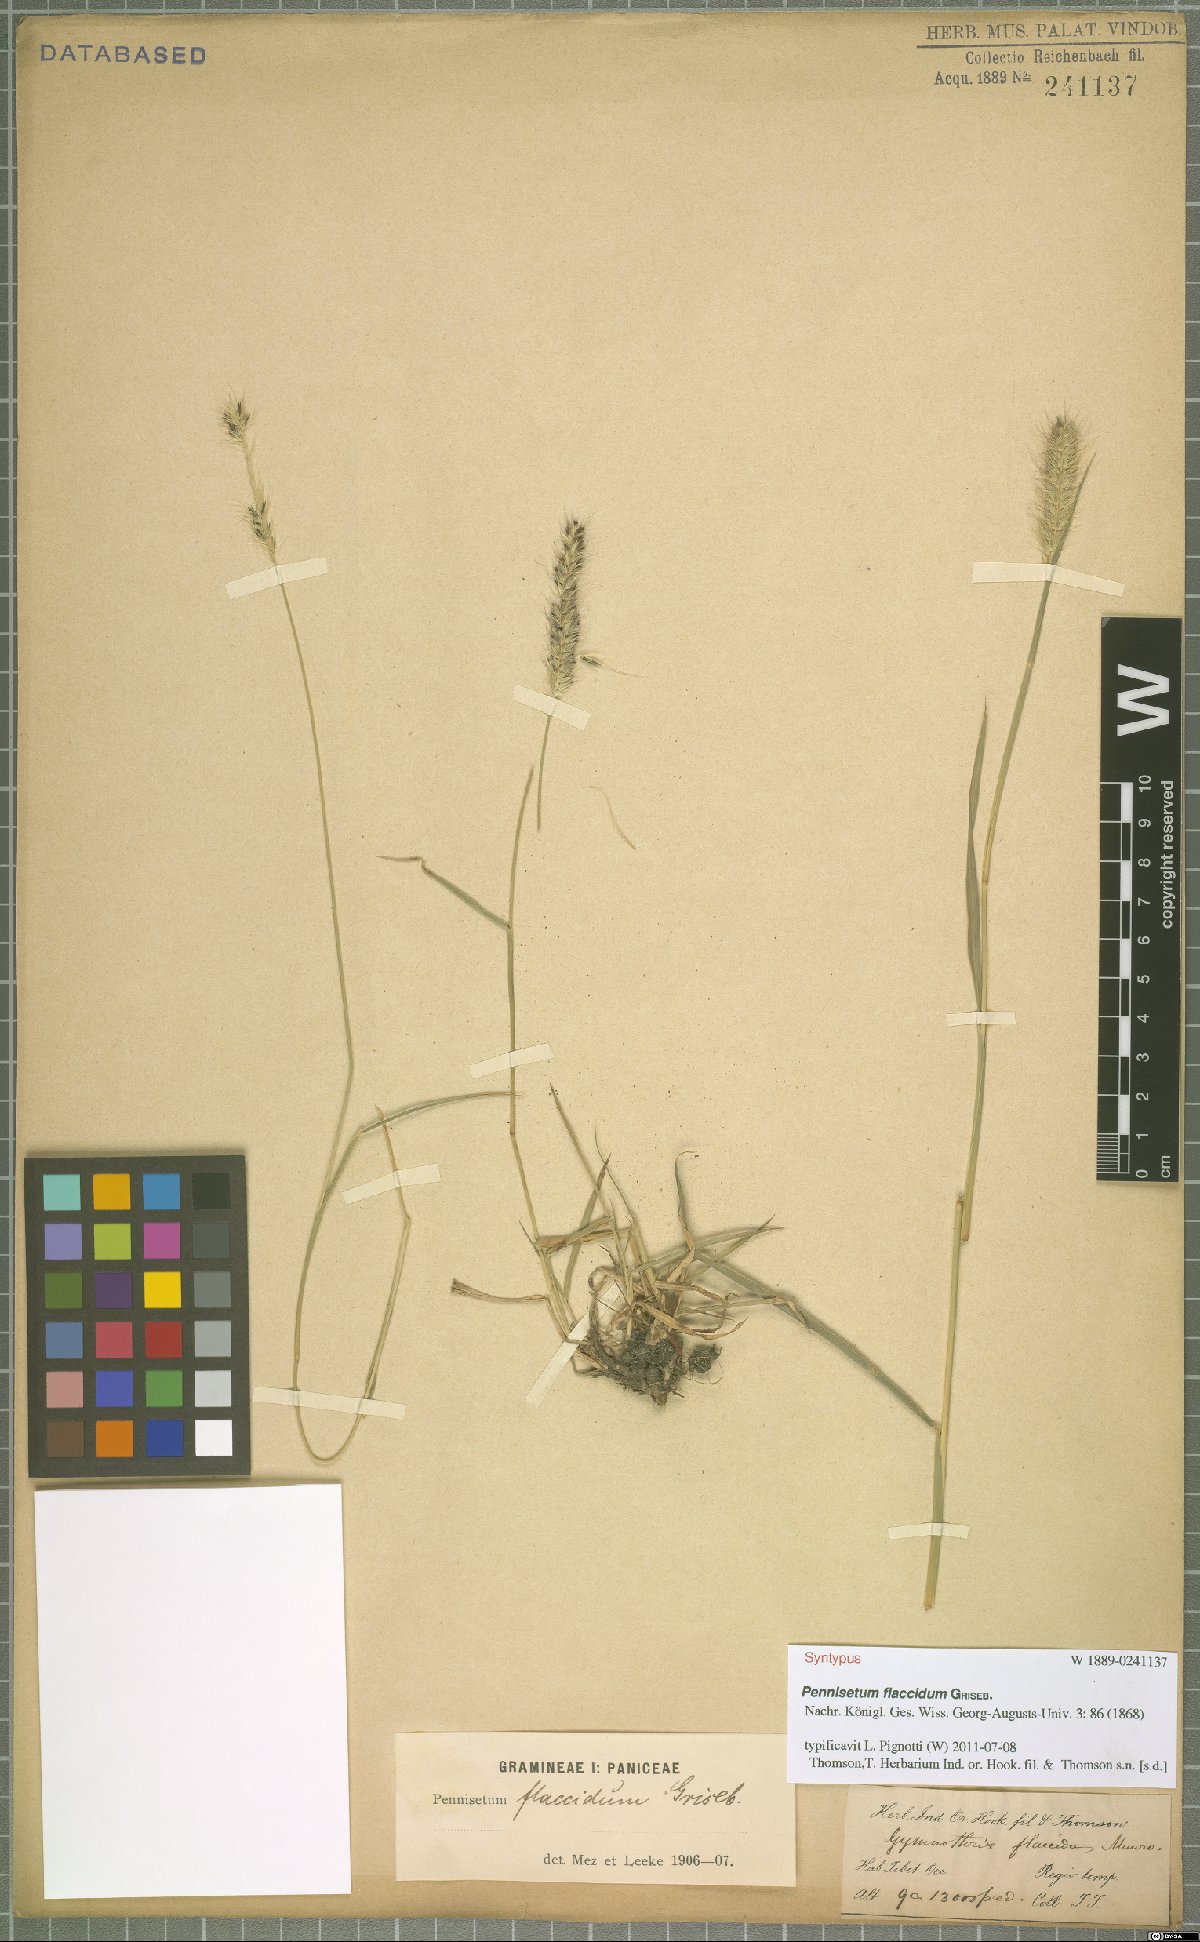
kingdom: Plantae
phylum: Tracheophyta
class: Liliopsida
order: Poales
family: Poaceae
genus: Cenchrus
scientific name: Cenchrus flaccidus
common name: Flaccid grass
